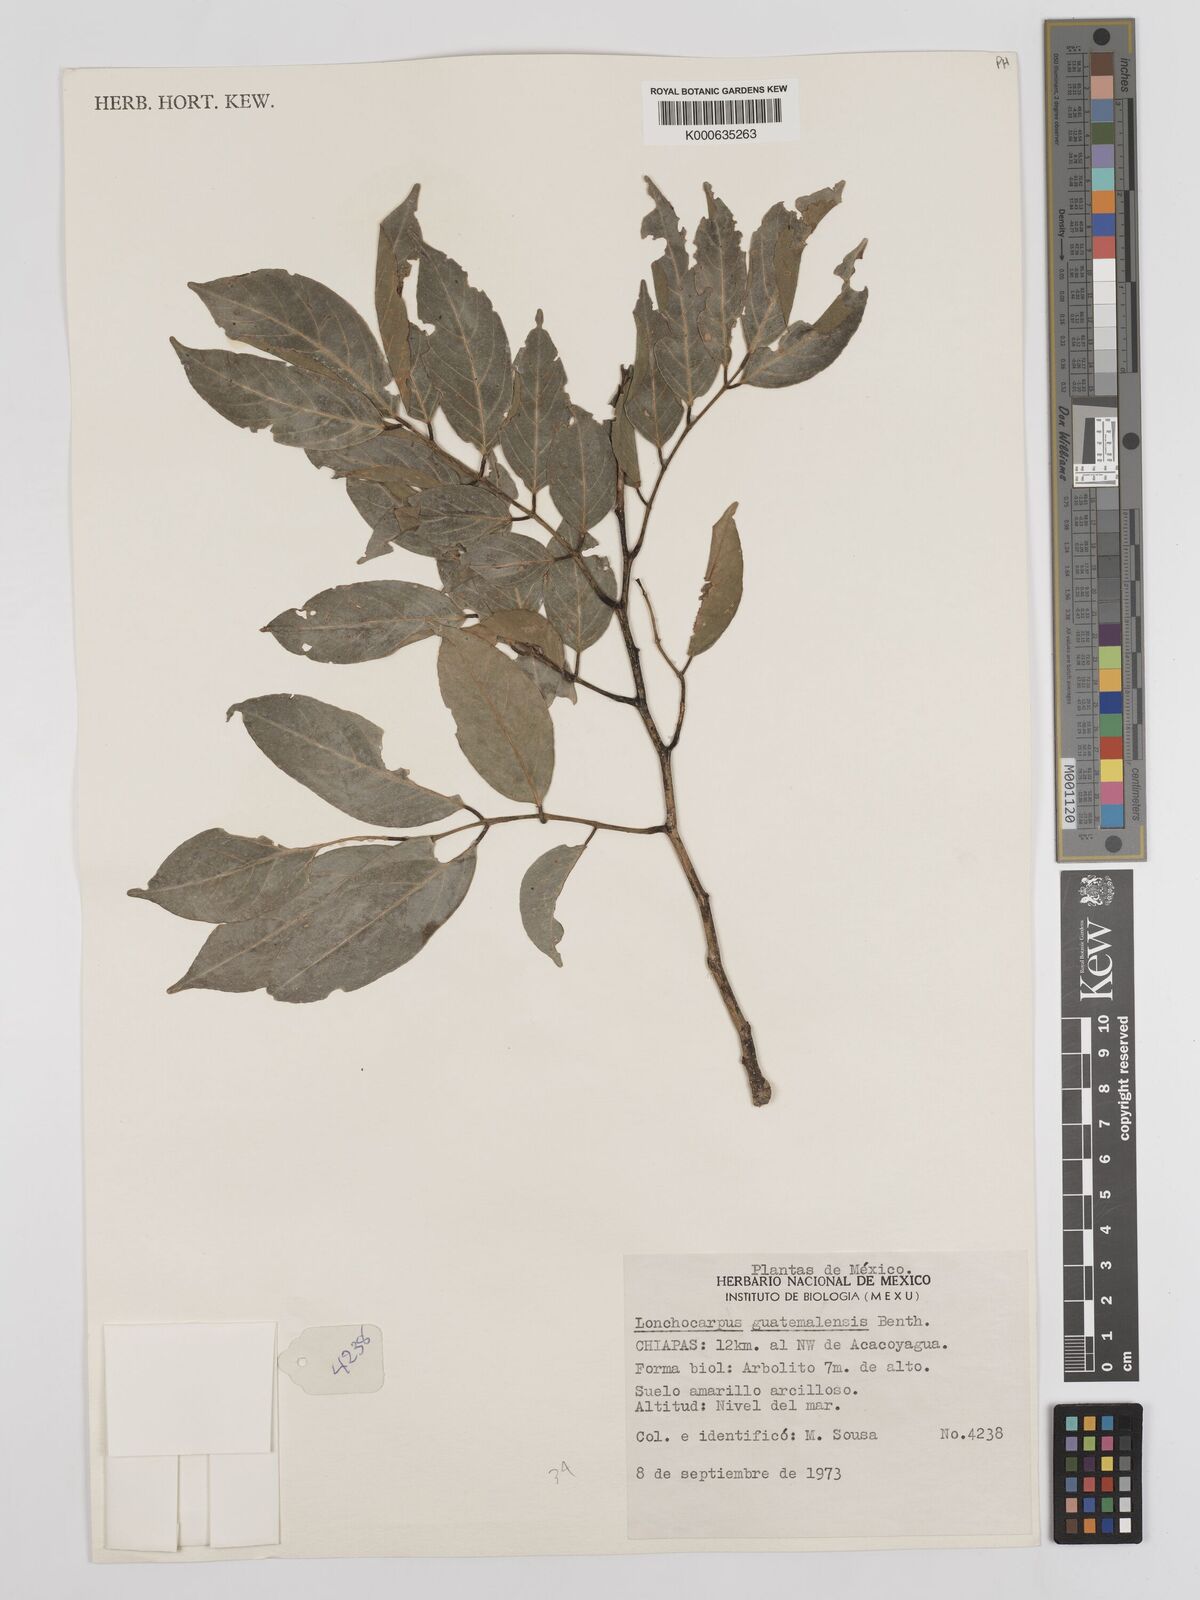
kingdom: Plantae
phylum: Tracheophyta
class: Magnoliopsida
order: Fabales
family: Fabaceae
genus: Lonchocarpus
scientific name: Lonchocarpus guatemalensis
